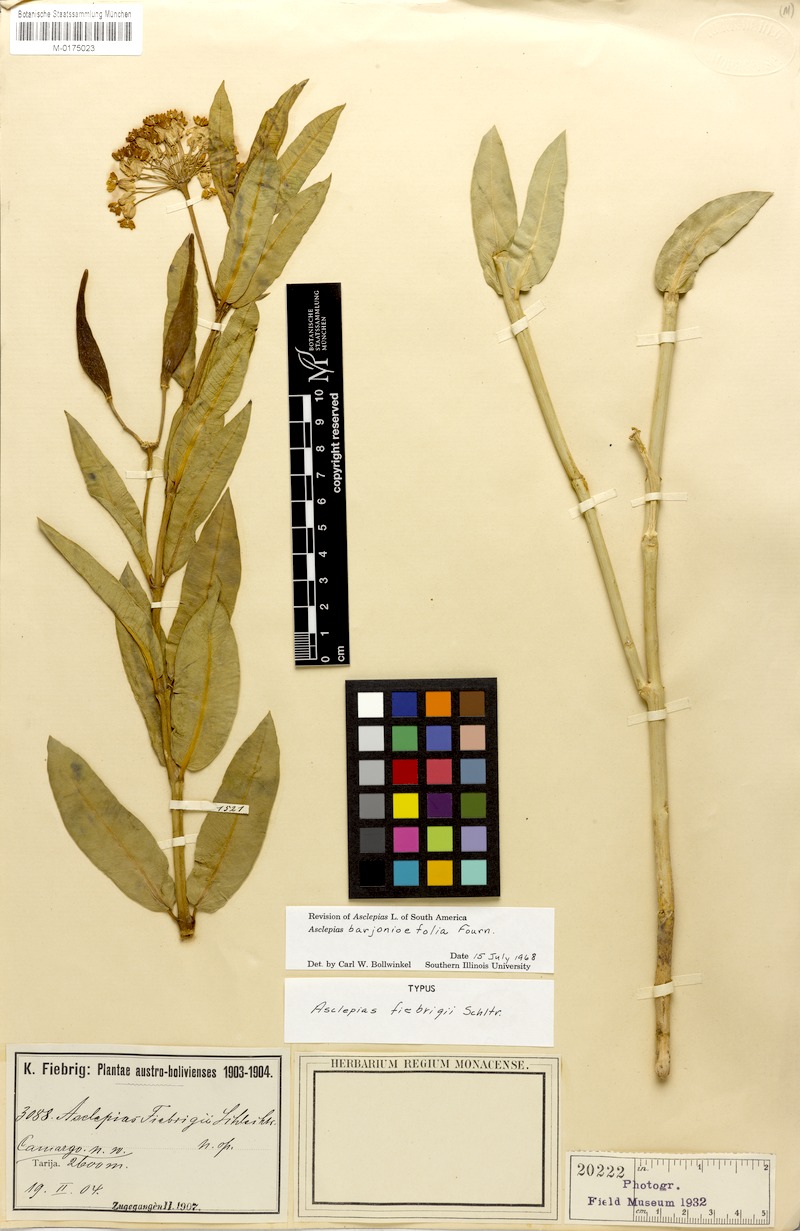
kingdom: Plantae
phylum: Tracheophyta
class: Magnoliopsida
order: Gentianales
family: Apocynaceae
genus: Asclepias
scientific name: Asclepias barjoniifolia
